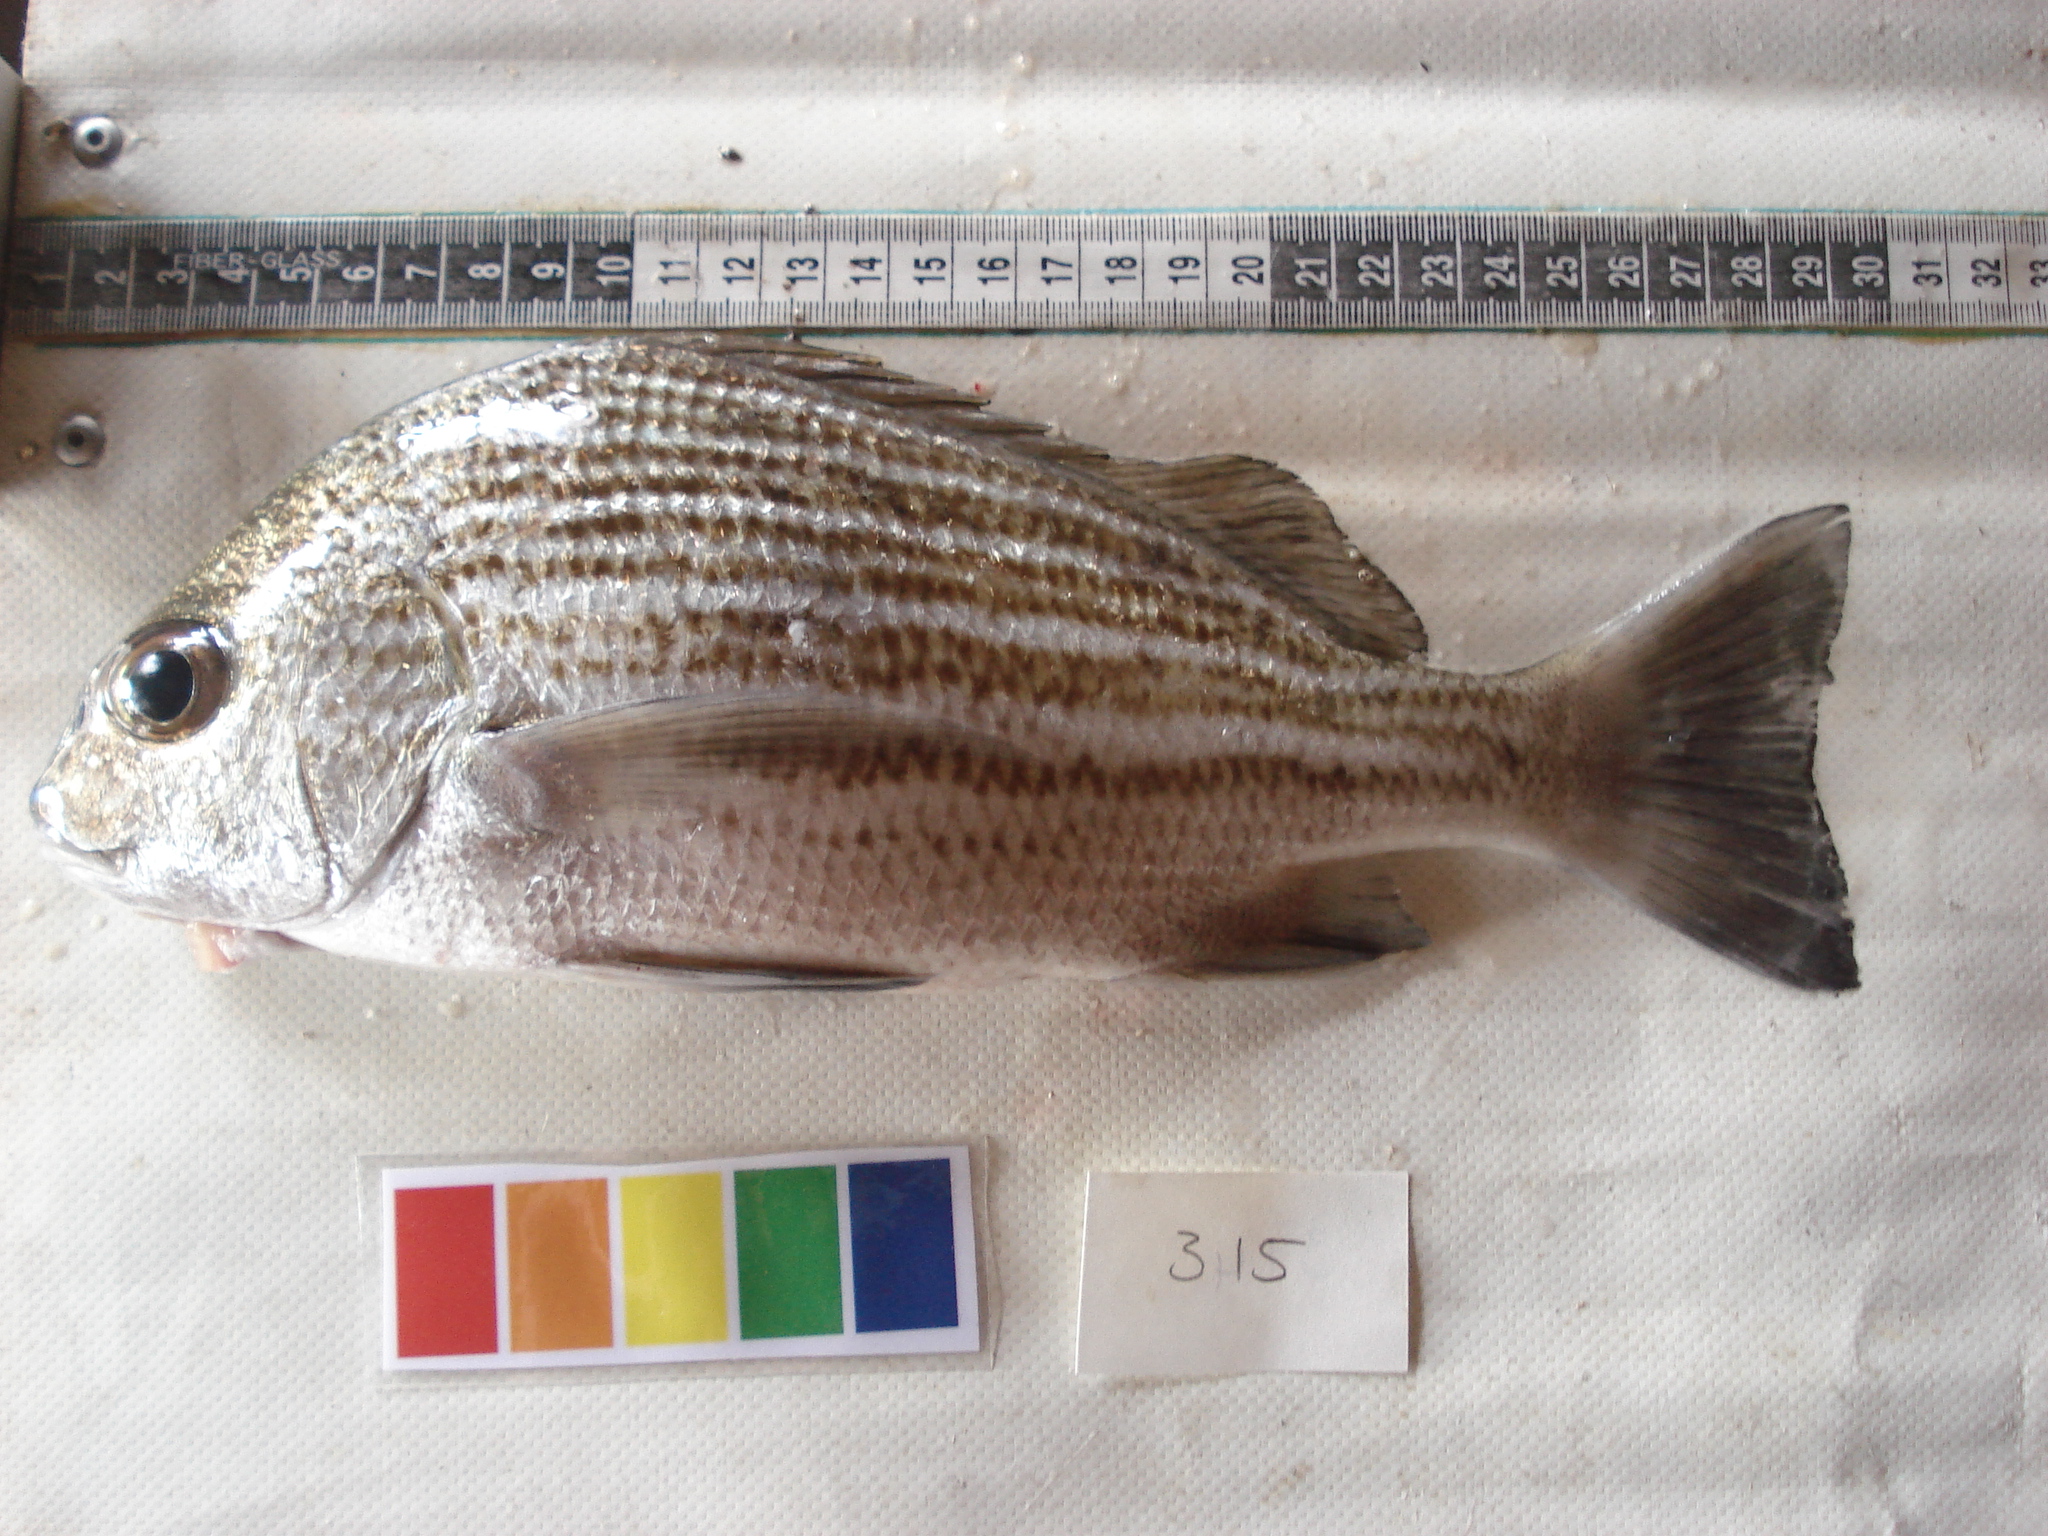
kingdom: Animalia
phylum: Chordata
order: Perciformes
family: Haemulidae
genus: Pomadasys
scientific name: Pomadasys furcatus
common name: Banded grunter
